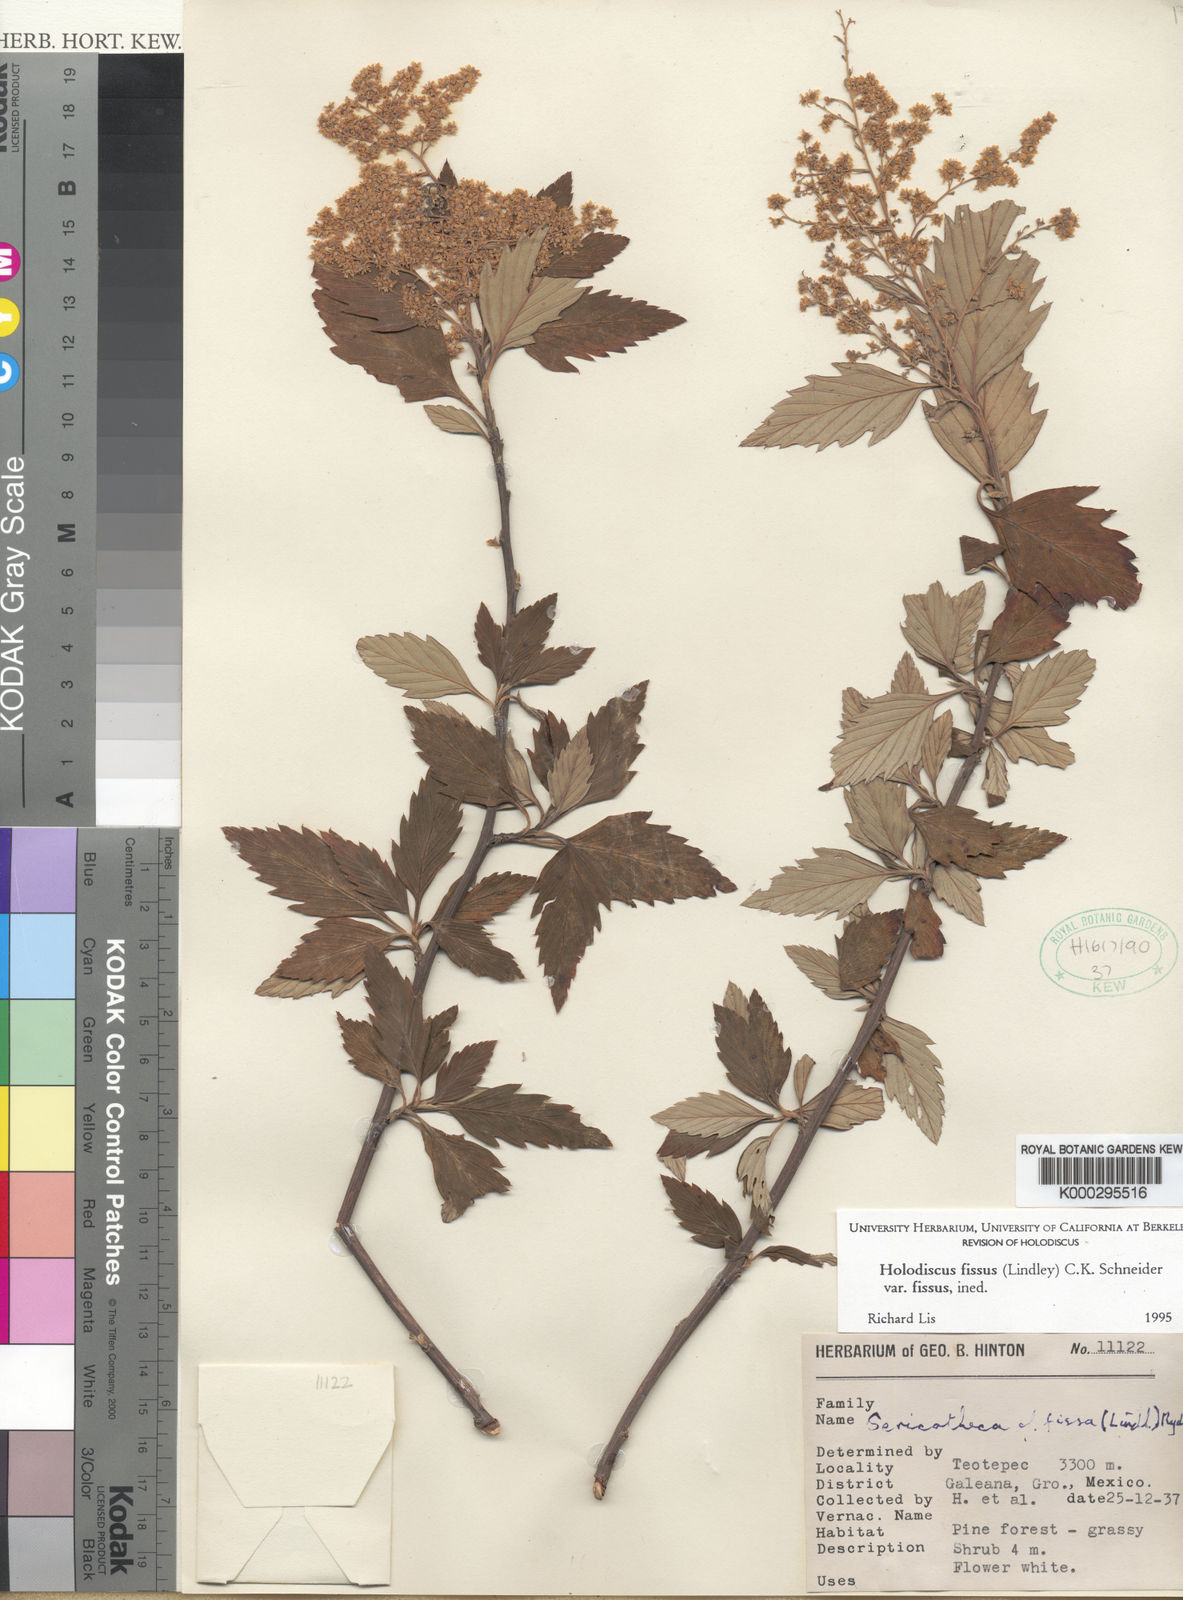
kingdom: Plantae
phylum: Tracheophyta
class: Magnoliopsida
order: Rosales
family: Rosaceae
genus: Holodiscus
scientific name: Holodiscus fissus
